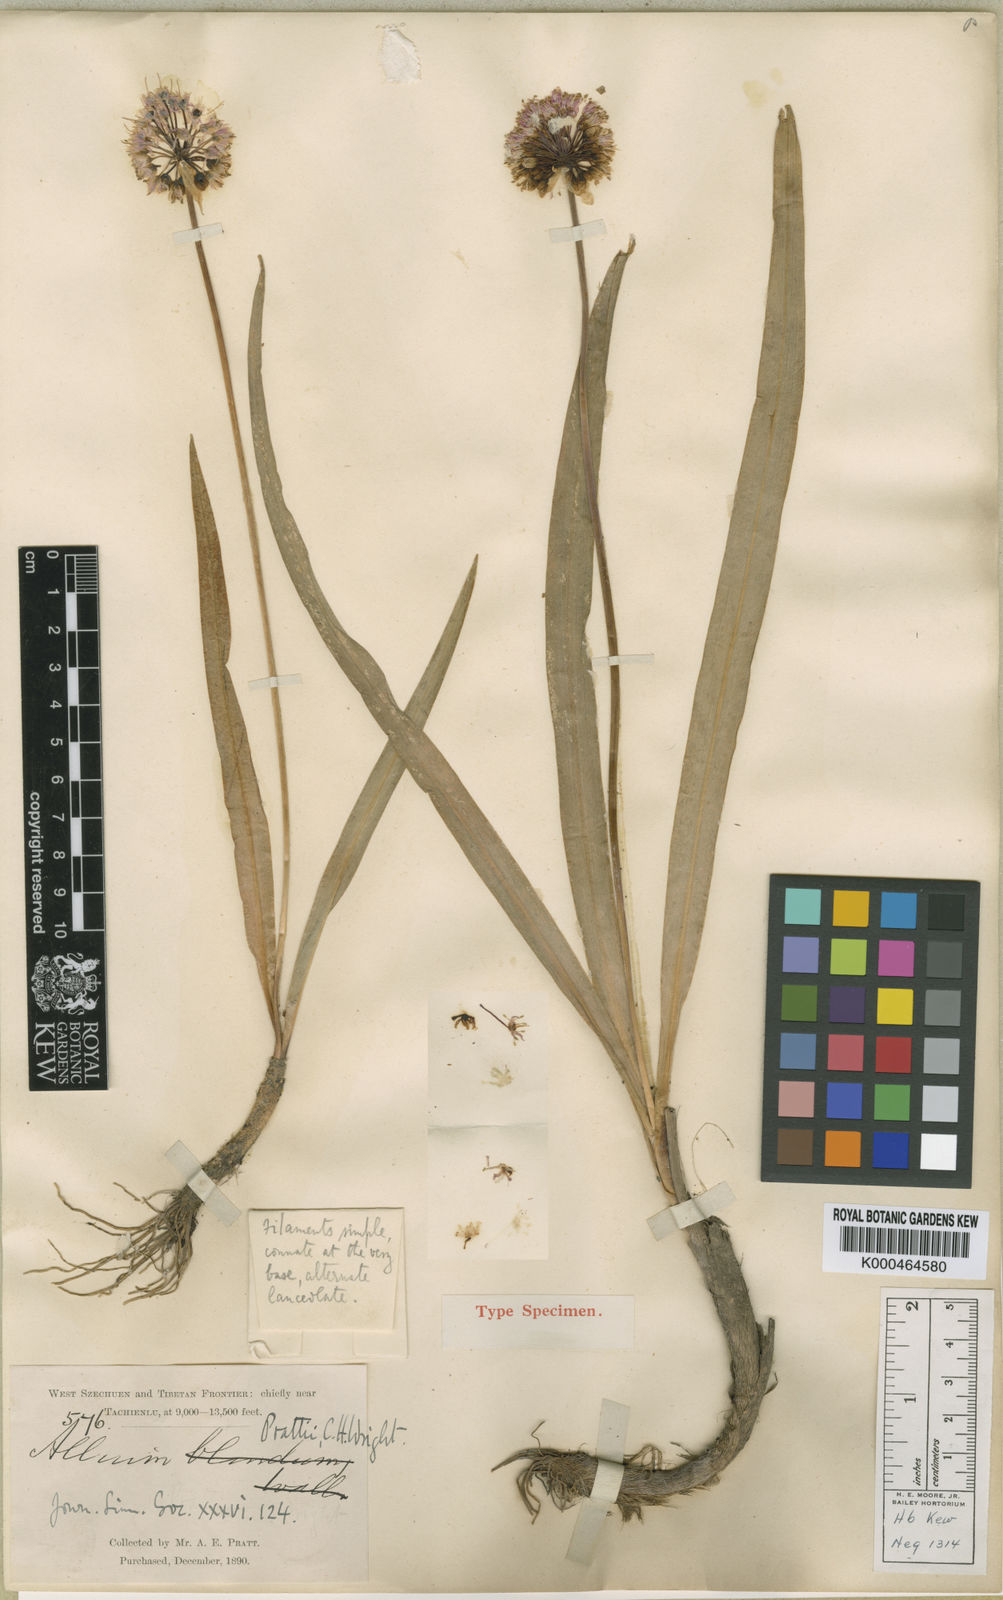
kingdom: Plantae
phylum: Tracheophyta
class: Liliopsida
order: Asparagales
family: Amaryllidaceae
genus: Allium
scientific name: Allium prattii
